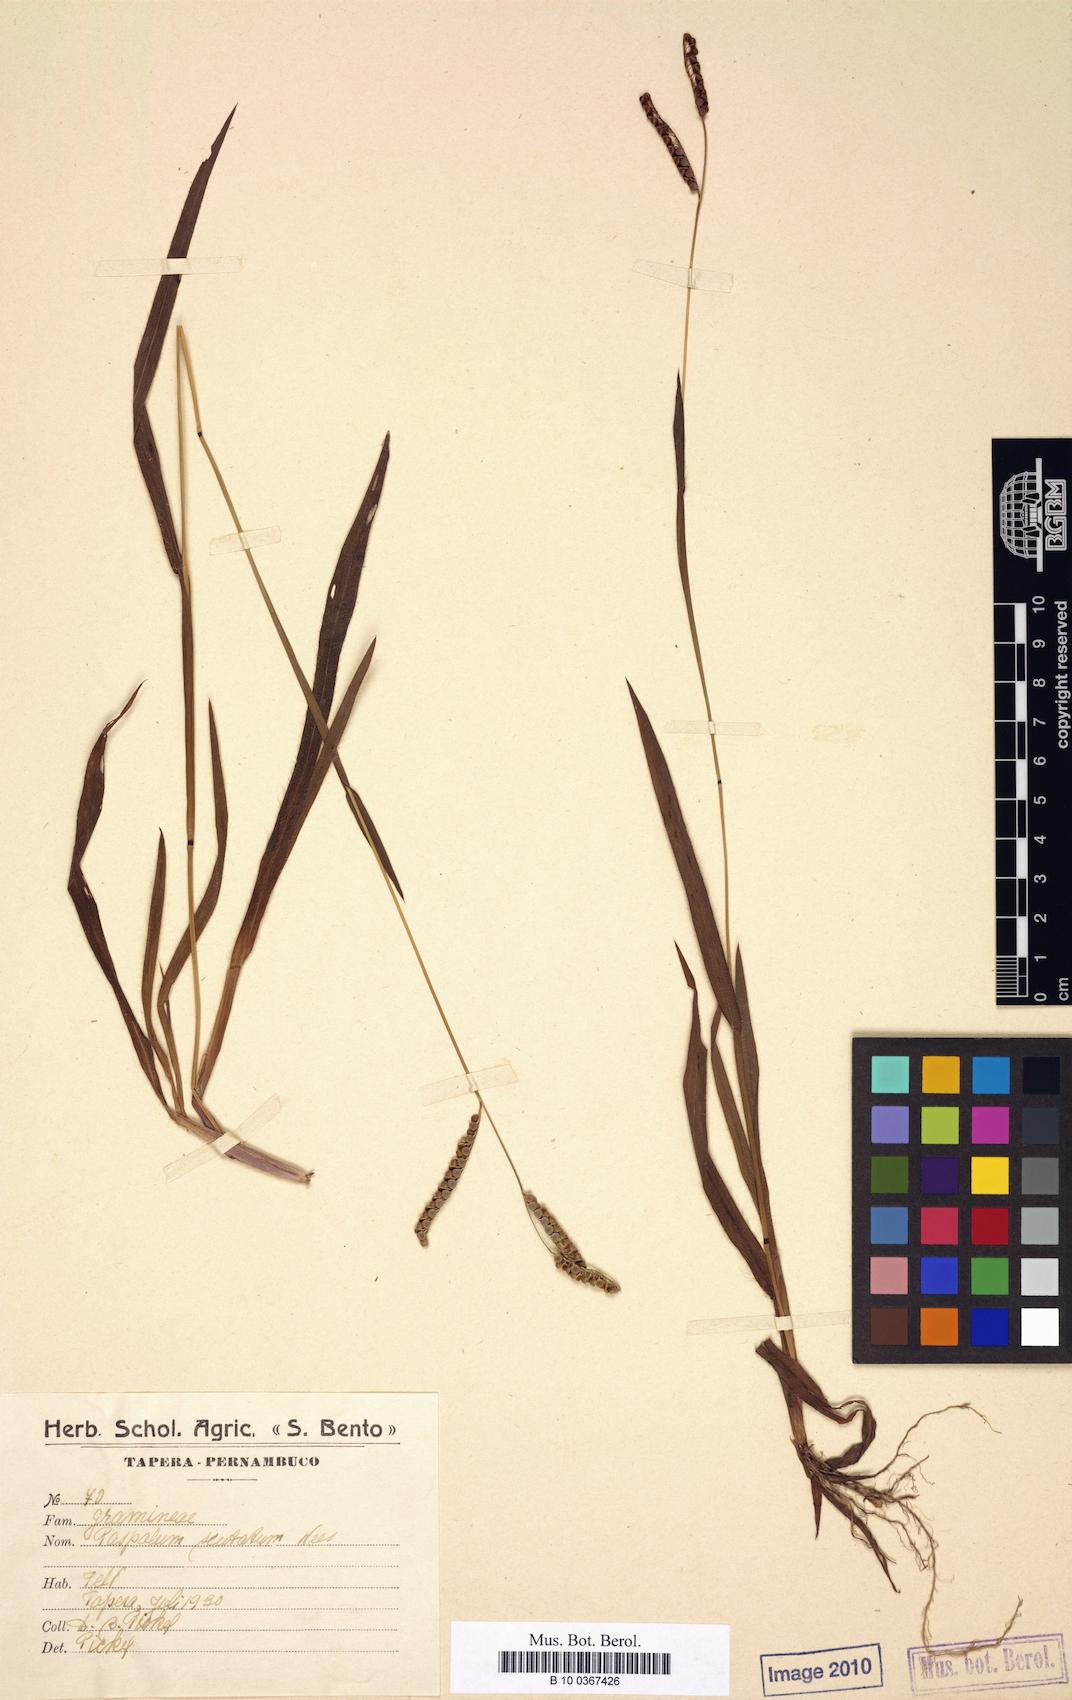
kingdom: Plantae
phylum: Tracheophyta
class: Liliopsida
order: Poales
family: Poaceae
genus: Paspalum
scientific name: Paspalum scutatum
